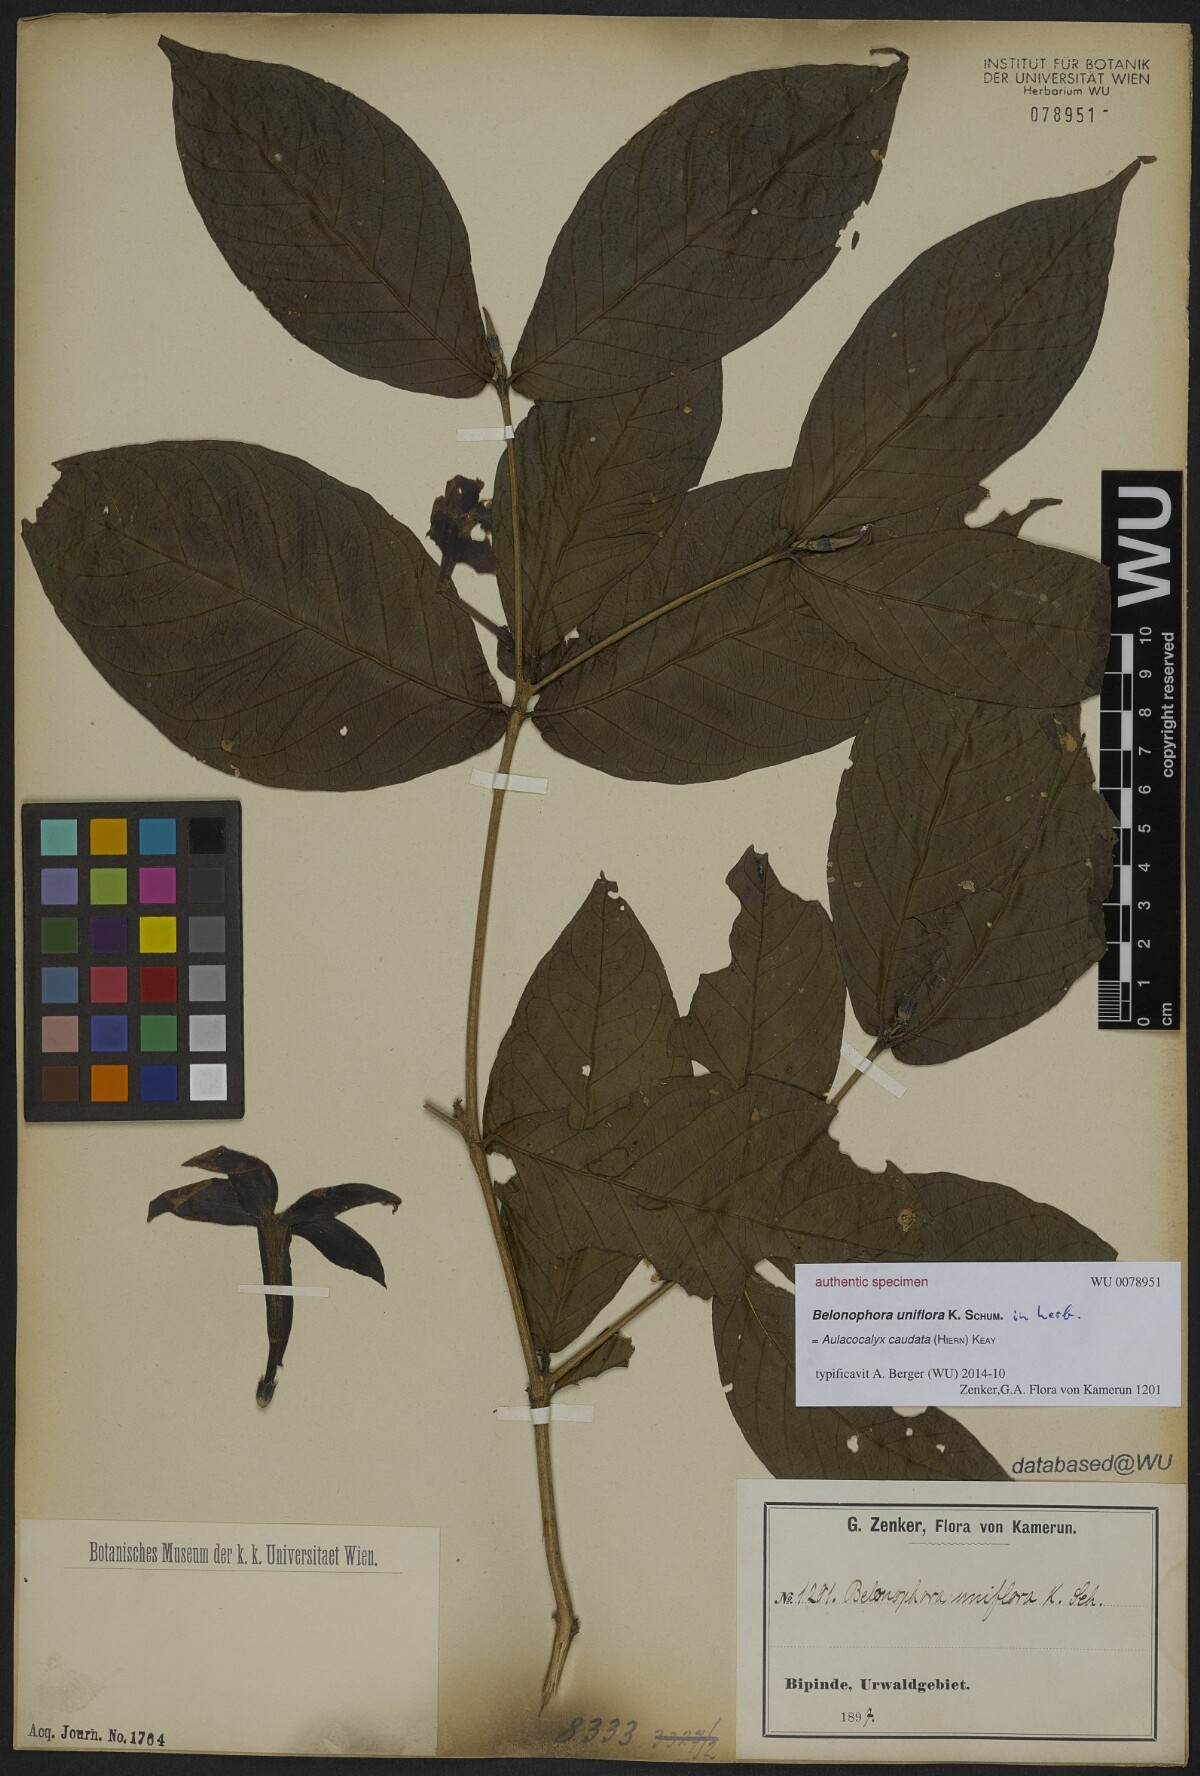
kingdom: Plantae
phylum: Tracheophyta
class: Magnoliopsida
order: Gentianales
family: Rubiaceae
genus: Belonophora
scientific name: Belonophora
